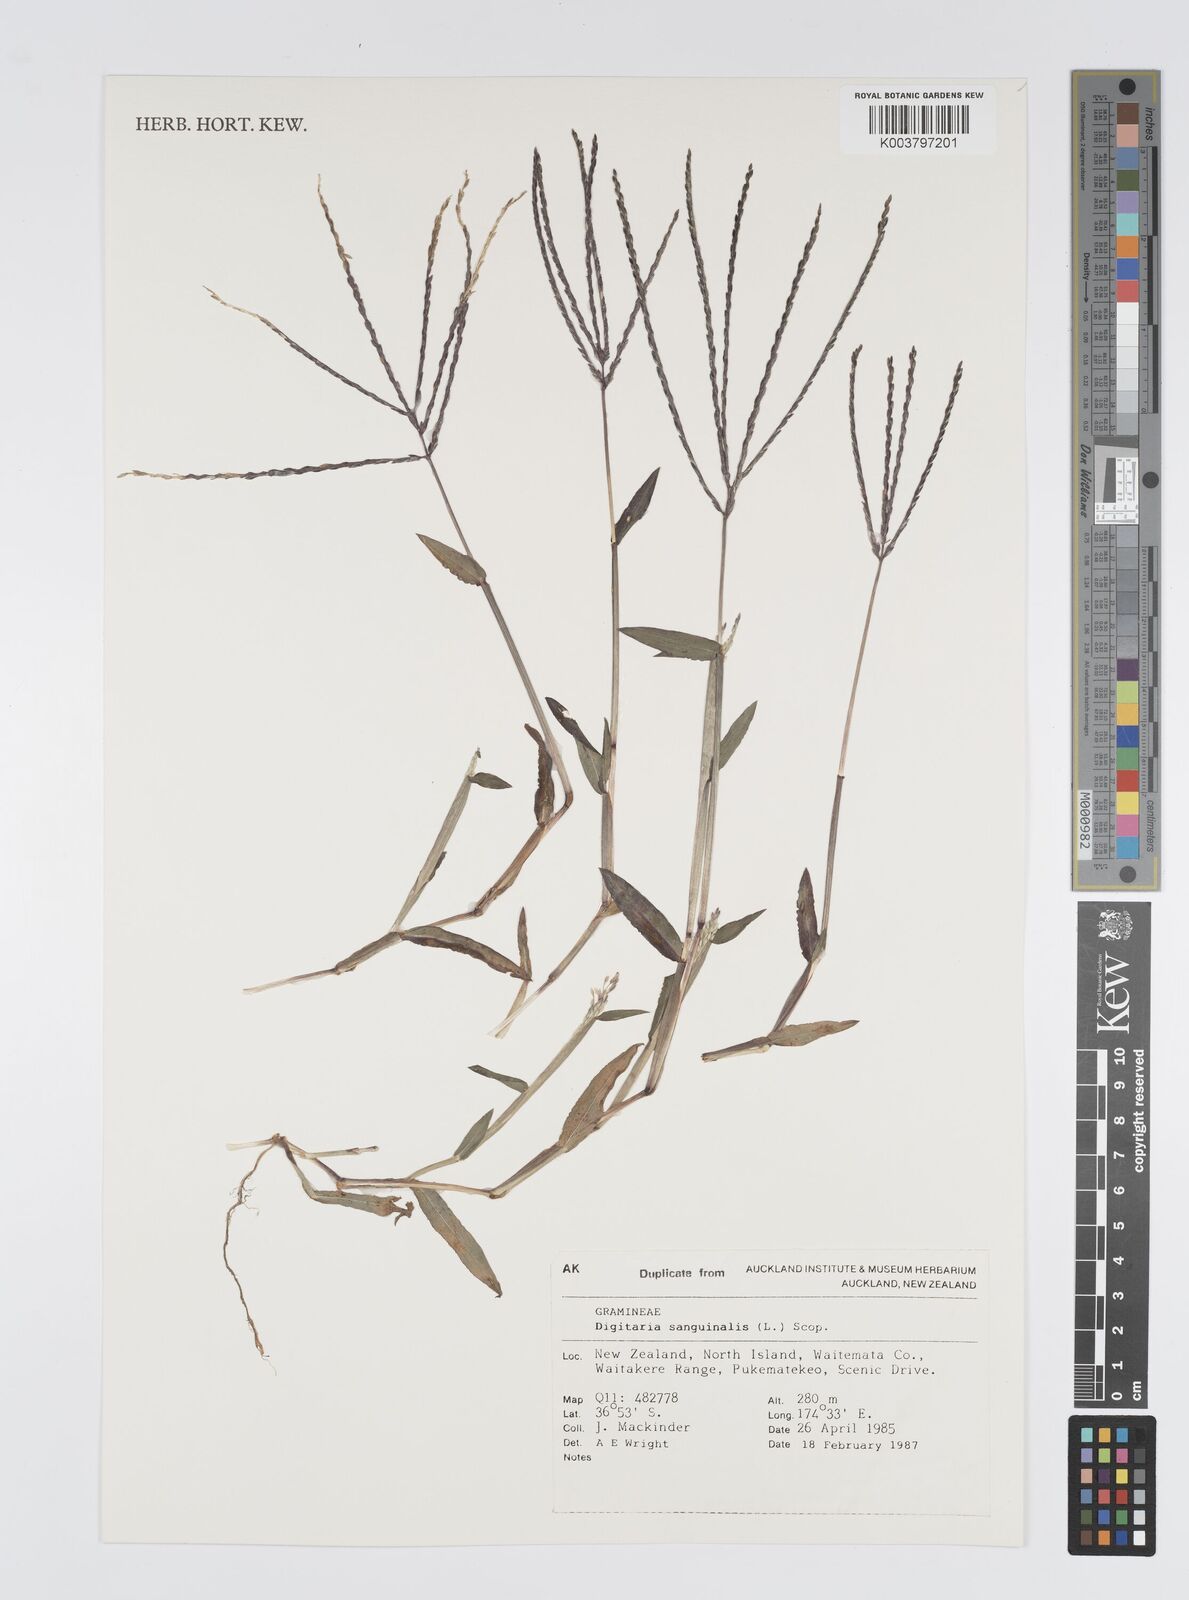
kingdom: Plantae
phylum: Tracheophyta
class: Liliopsida
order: Poales
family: Poaceae
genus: Digitaria
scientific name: Digitaria sanguinalis
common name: Hairy crabgrass
